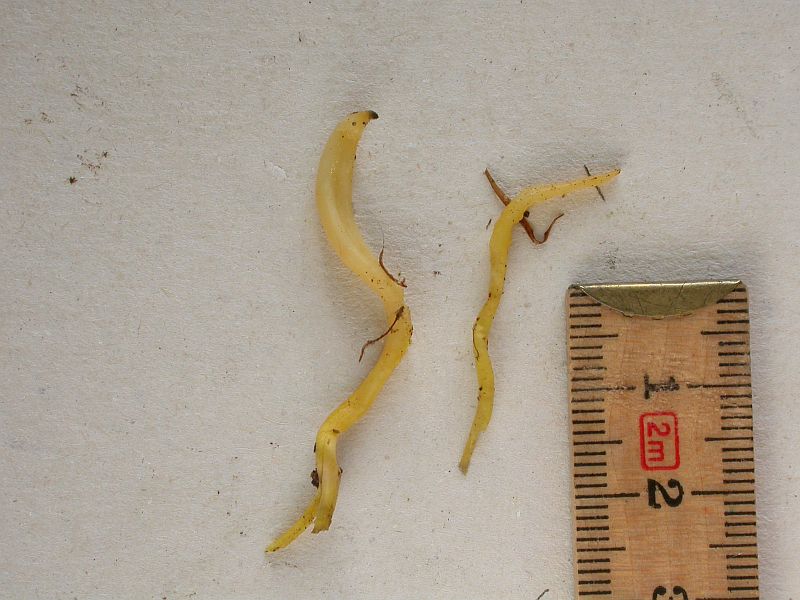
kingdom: Fungi
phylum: Basidiomycota
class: Agaricomycetes
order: Agaricales
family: Clavariaceae
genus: Clavulinopsis
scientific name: Clavulinopsis helvola
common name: orangegul køllesvamp
